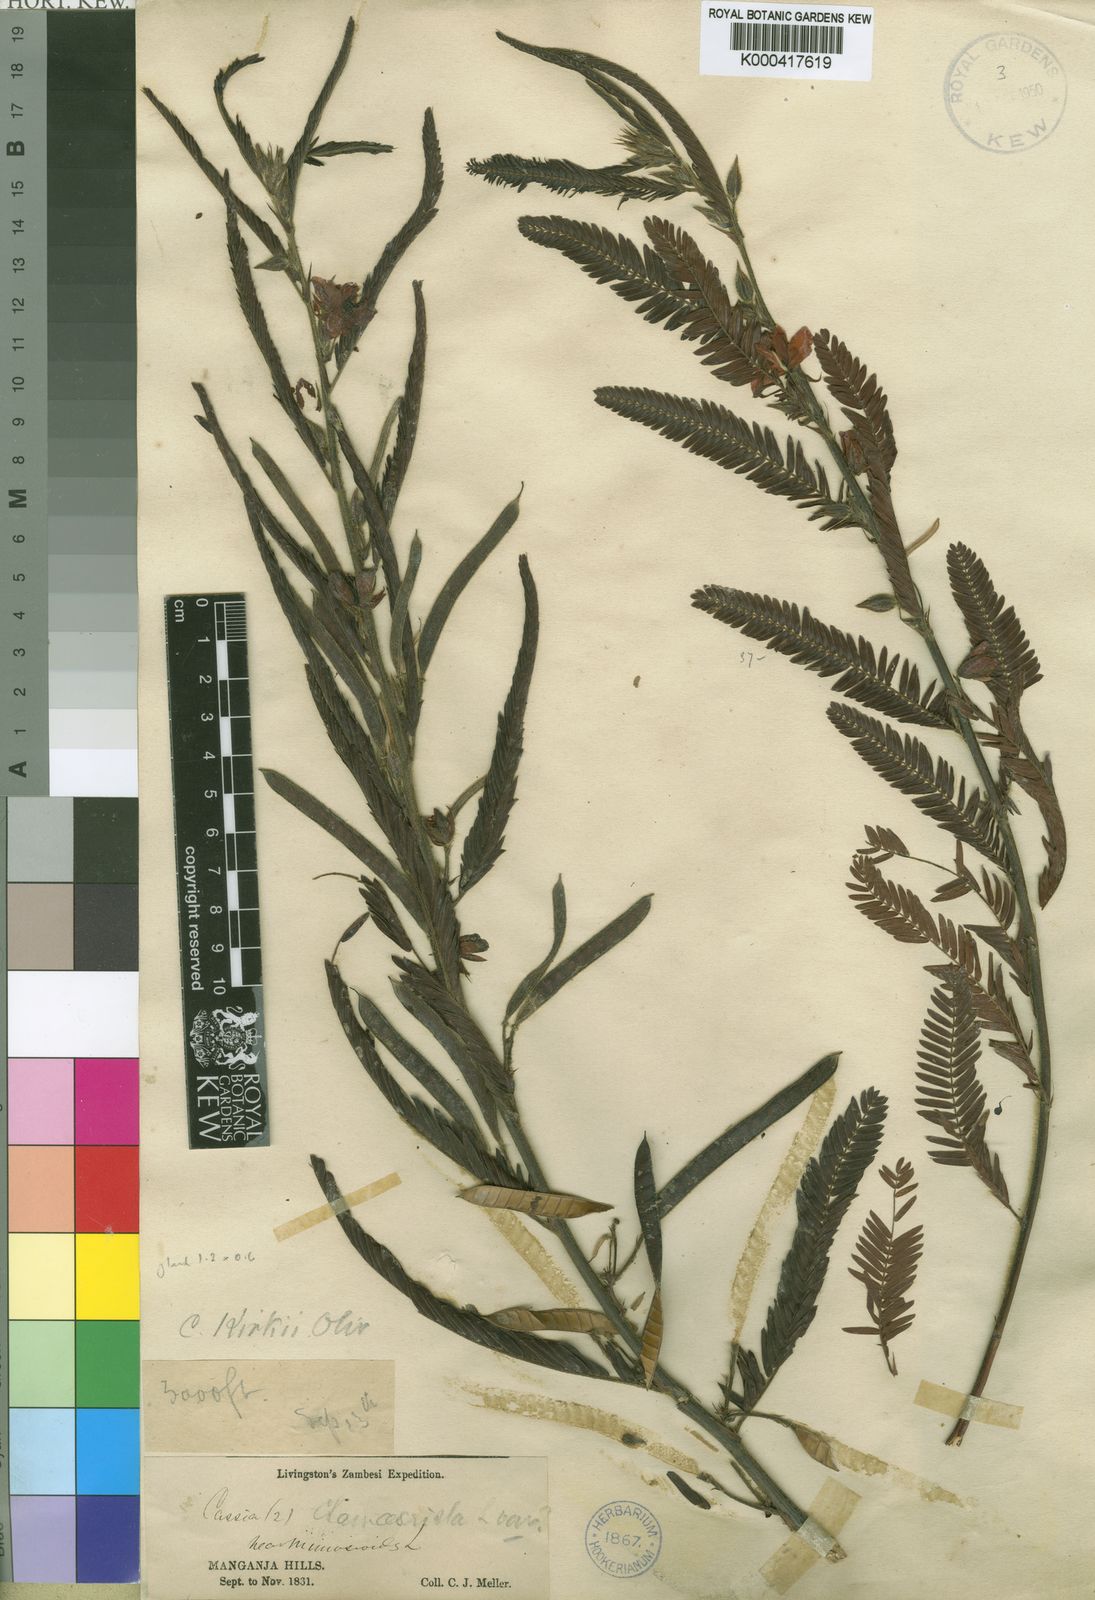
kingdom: Plantae
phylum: Tracheophyta
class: Magnoliopsida
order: Fabales
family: Fabaceae
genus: Chamaecrista
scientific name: Chamaecrista kirkii
